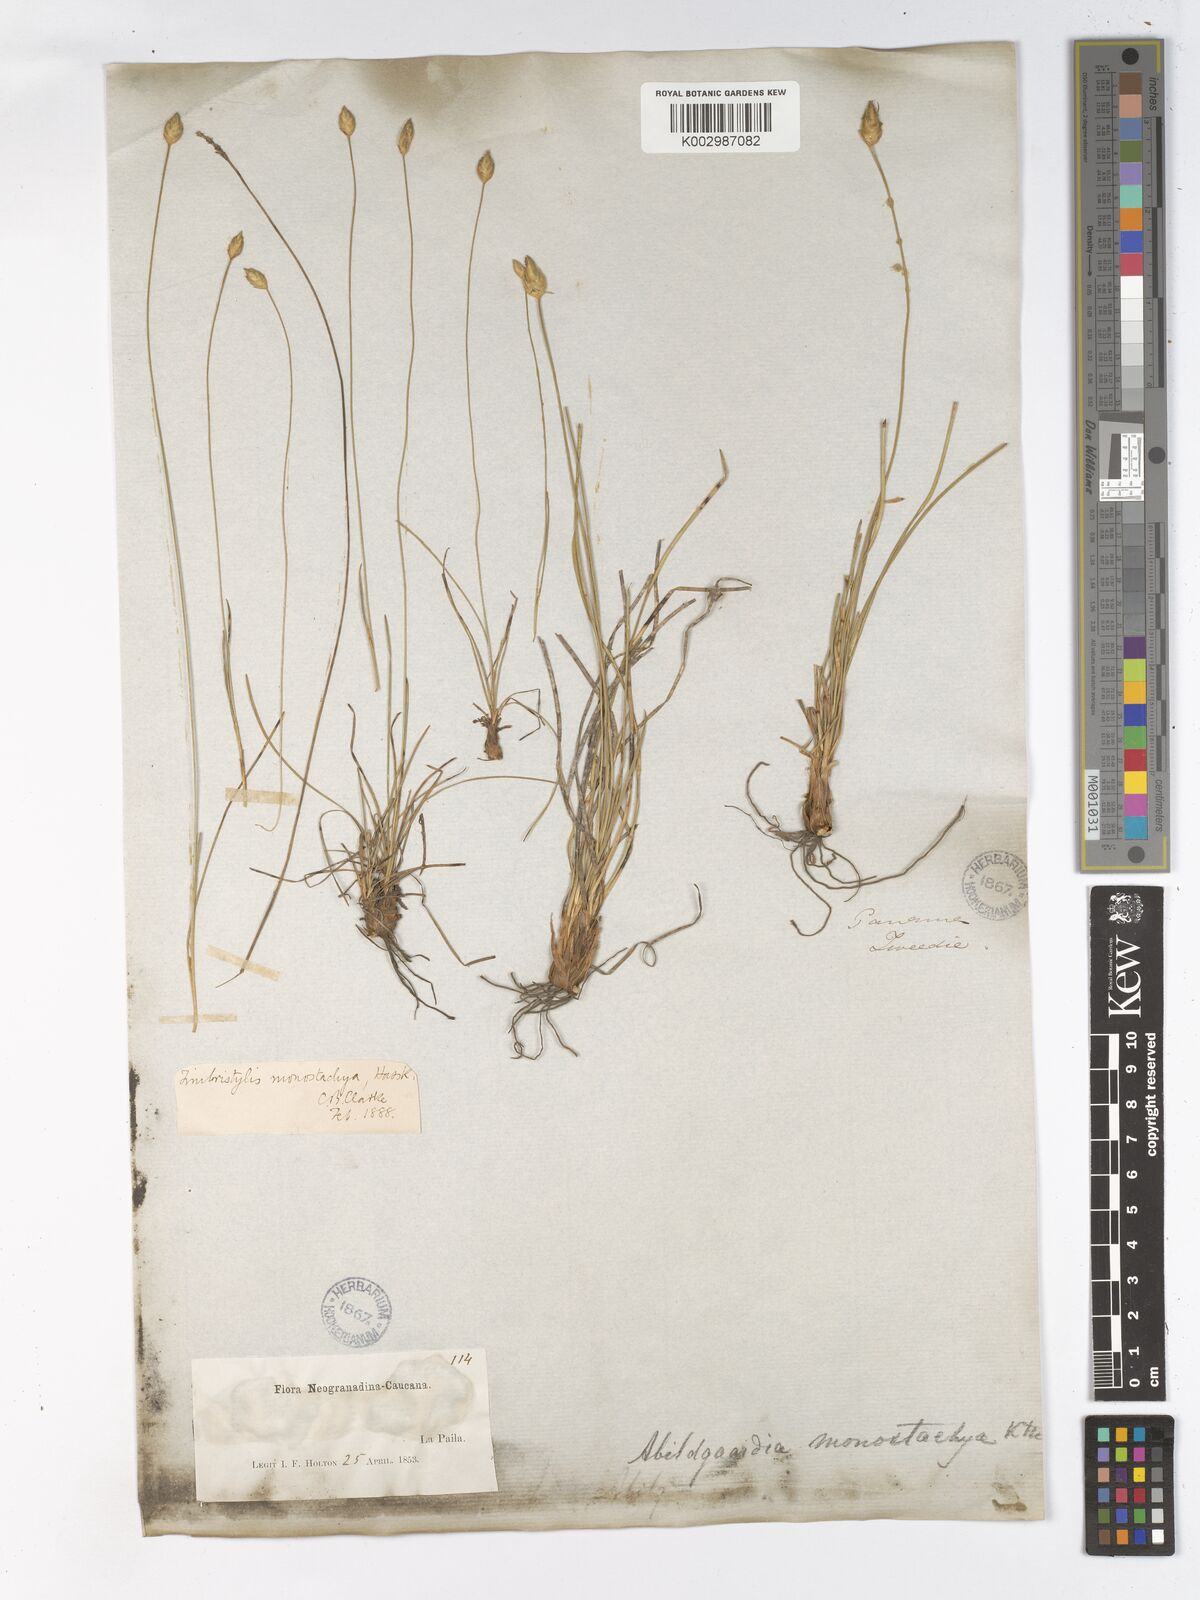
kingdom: Plantae
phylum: Tracheophyta
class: Liliopsida
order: Poales
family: Cyperaceae
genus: Abildgaardia
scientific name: Abildgaardia ovata
